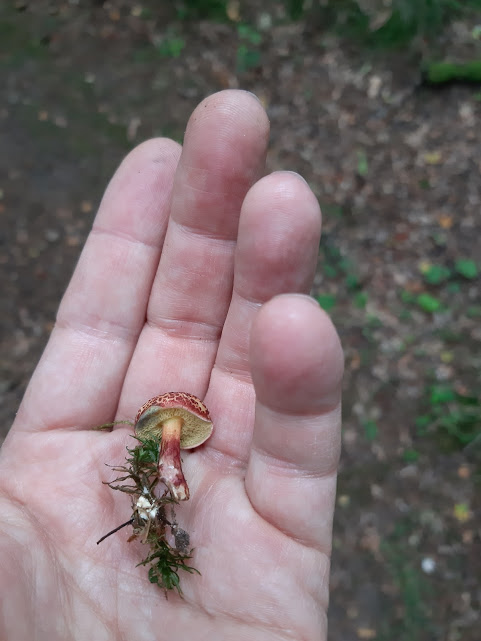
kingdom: Fungi
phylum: Basidiomycota
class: Agaricomycetes
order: Boletales
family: Boletaceae
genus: Xerocomellus
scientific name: Xerocomellus
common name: dværgrørhat
